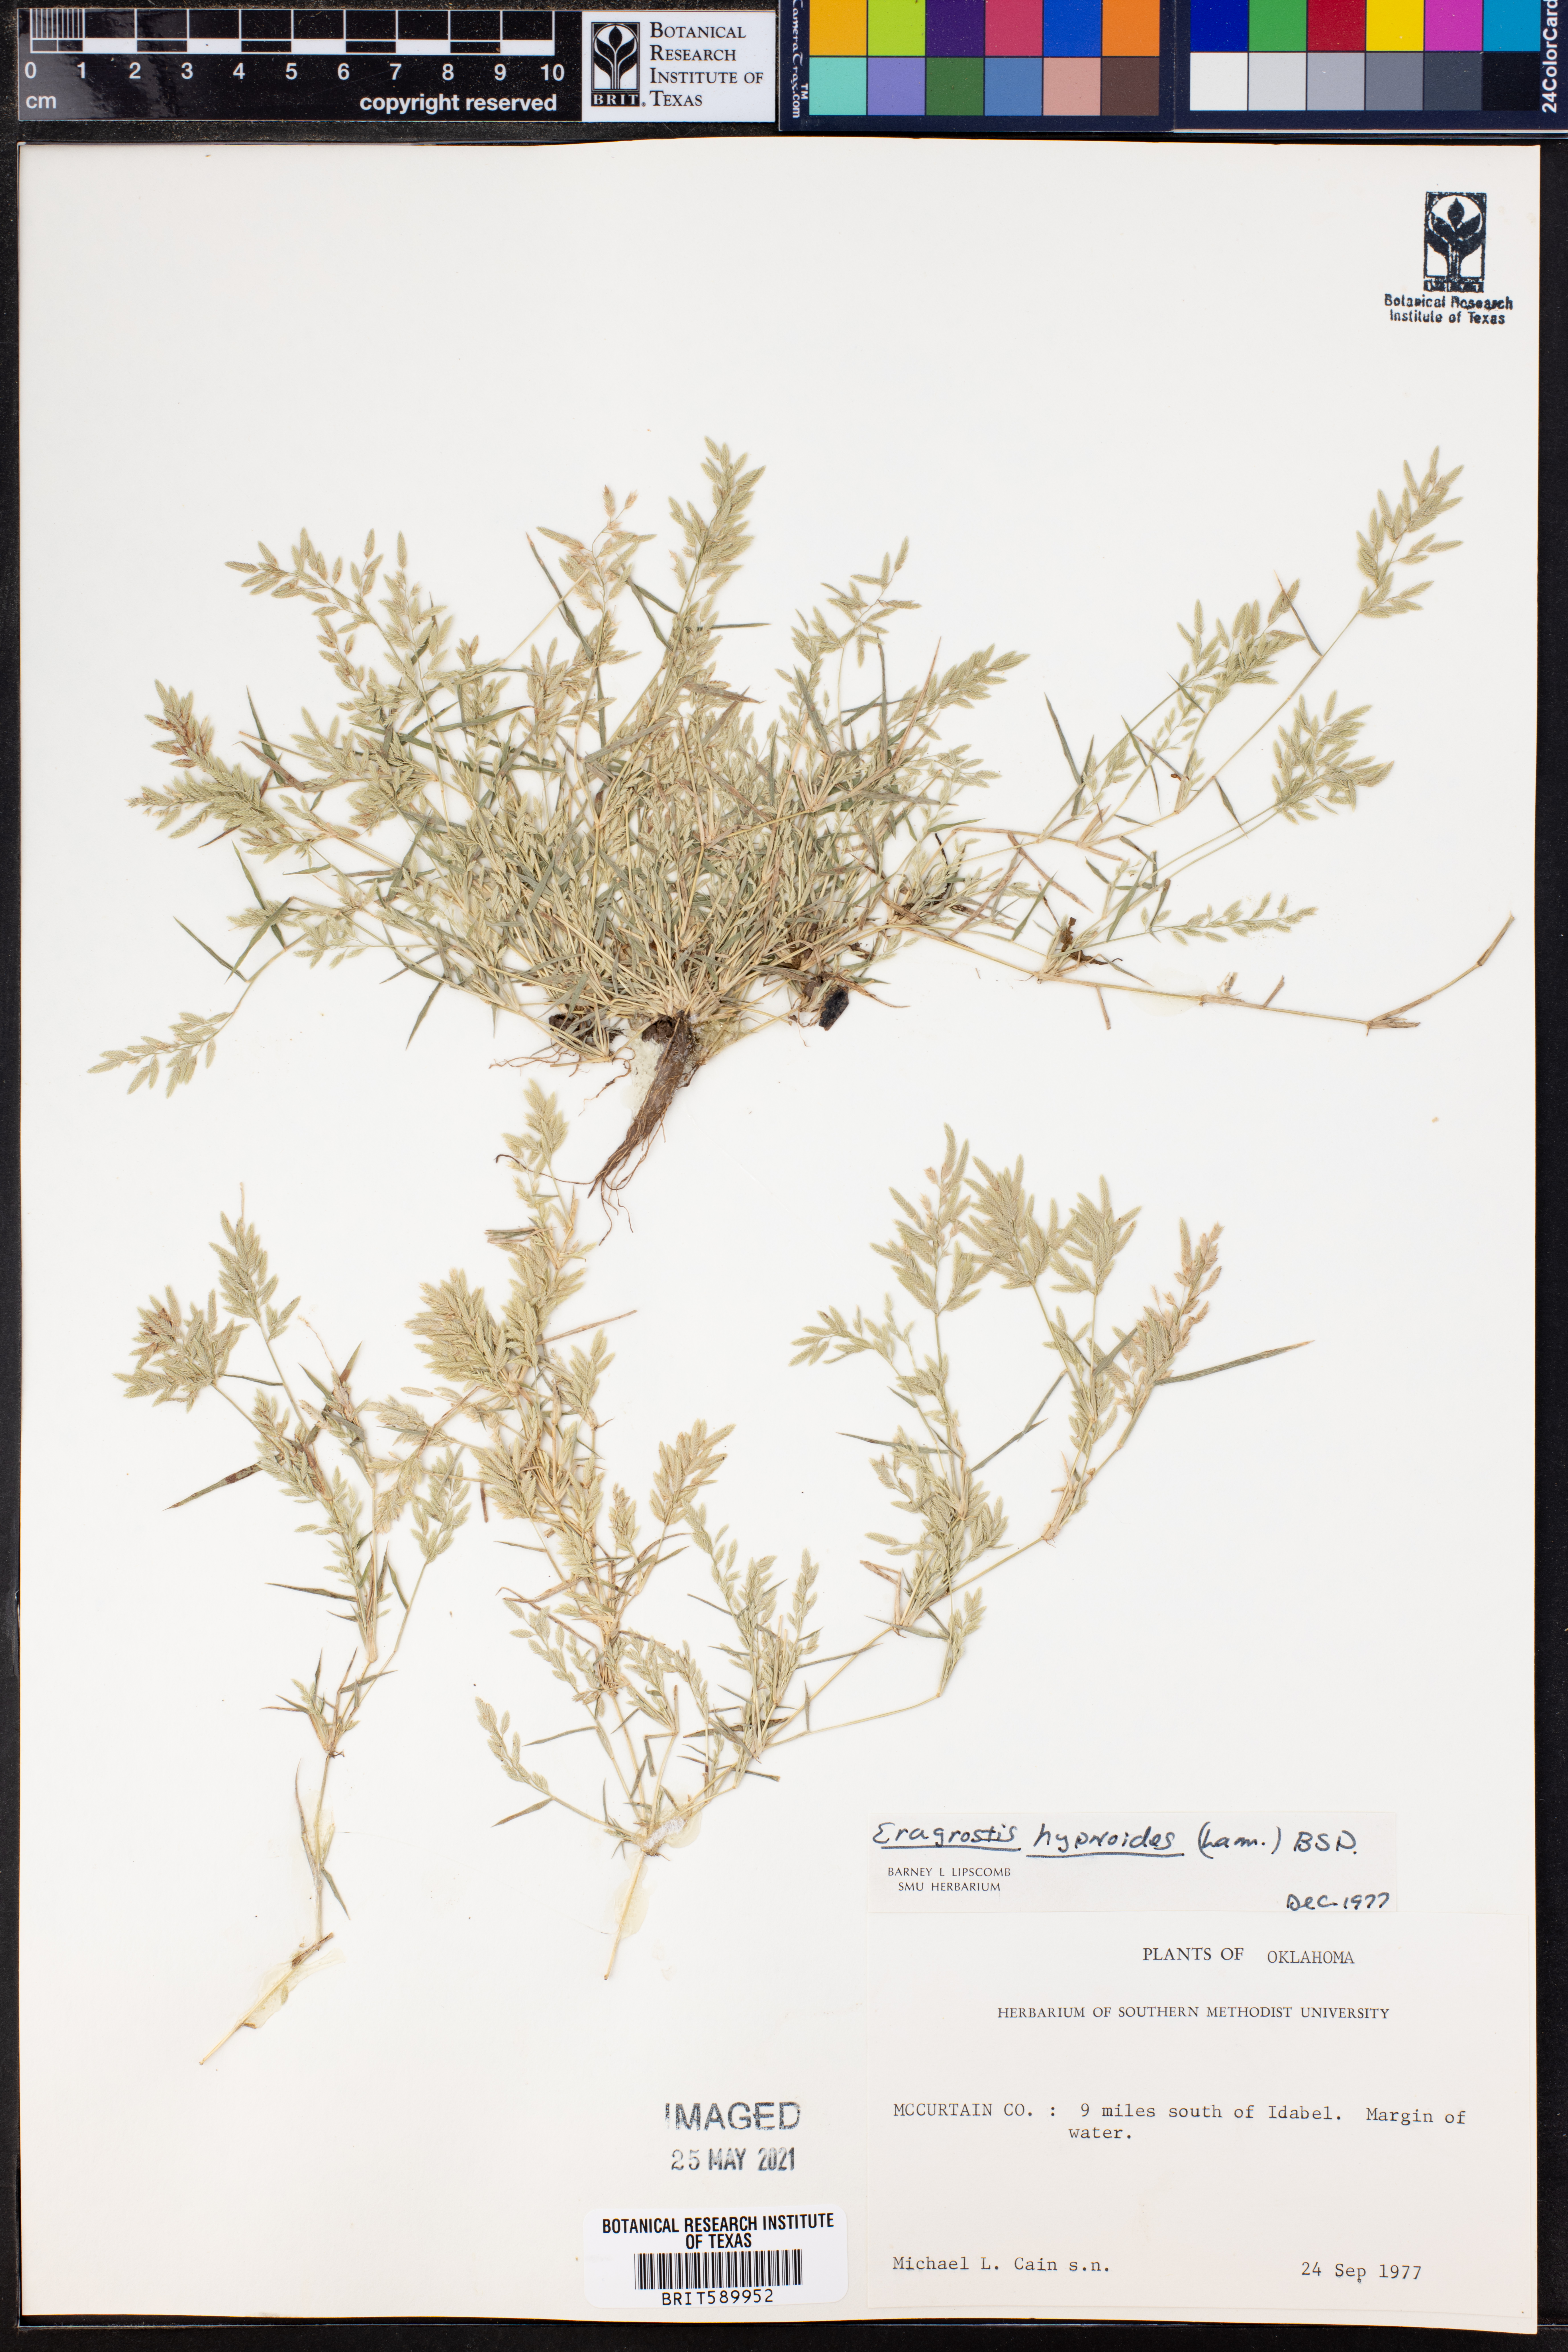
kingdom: Plantae
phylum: Tracheophyta
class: Liliopsida
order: Poales
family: Poaceae
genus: Eragrostis
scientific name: Eragrostis hypnoides
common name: Creeping love grass
